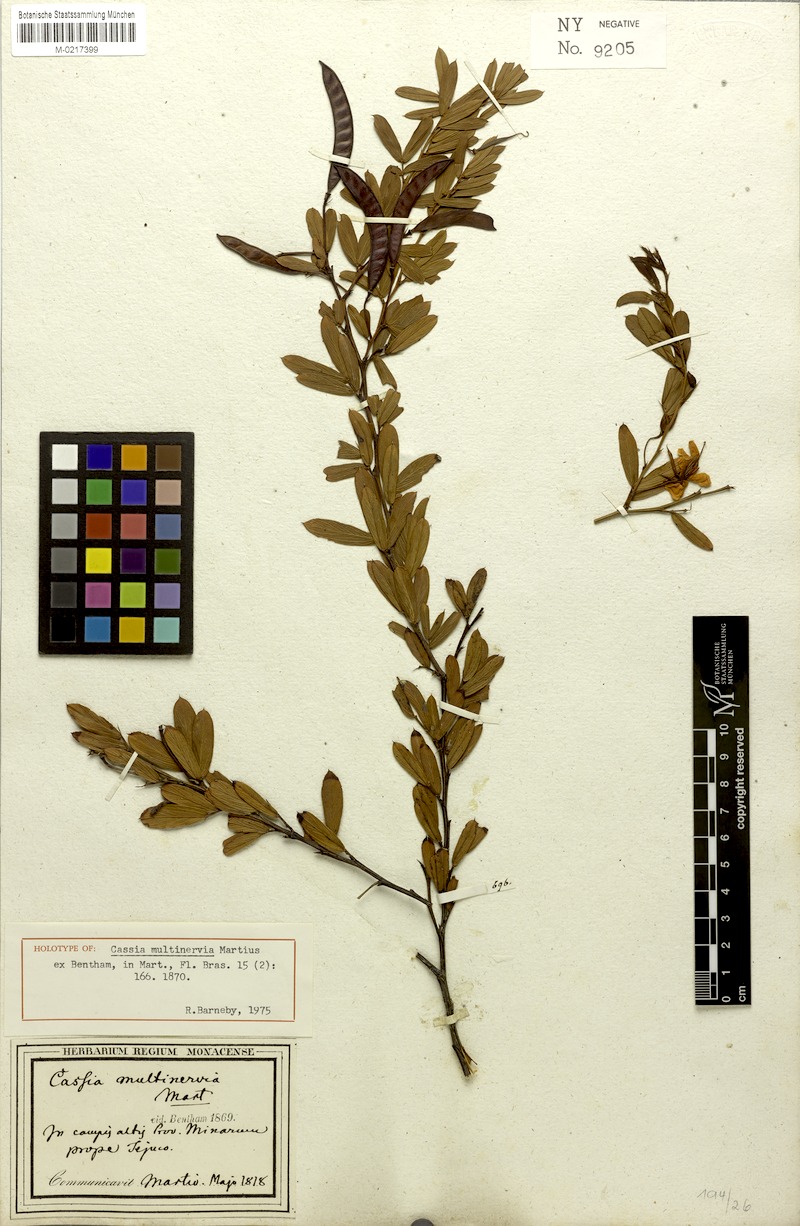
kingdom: Plantae
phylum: Tracheophyta
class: Magnoliopsida
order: Fabales
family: Fabaceae
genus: Chamaecrista
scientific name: Chamaecrista multinervia
